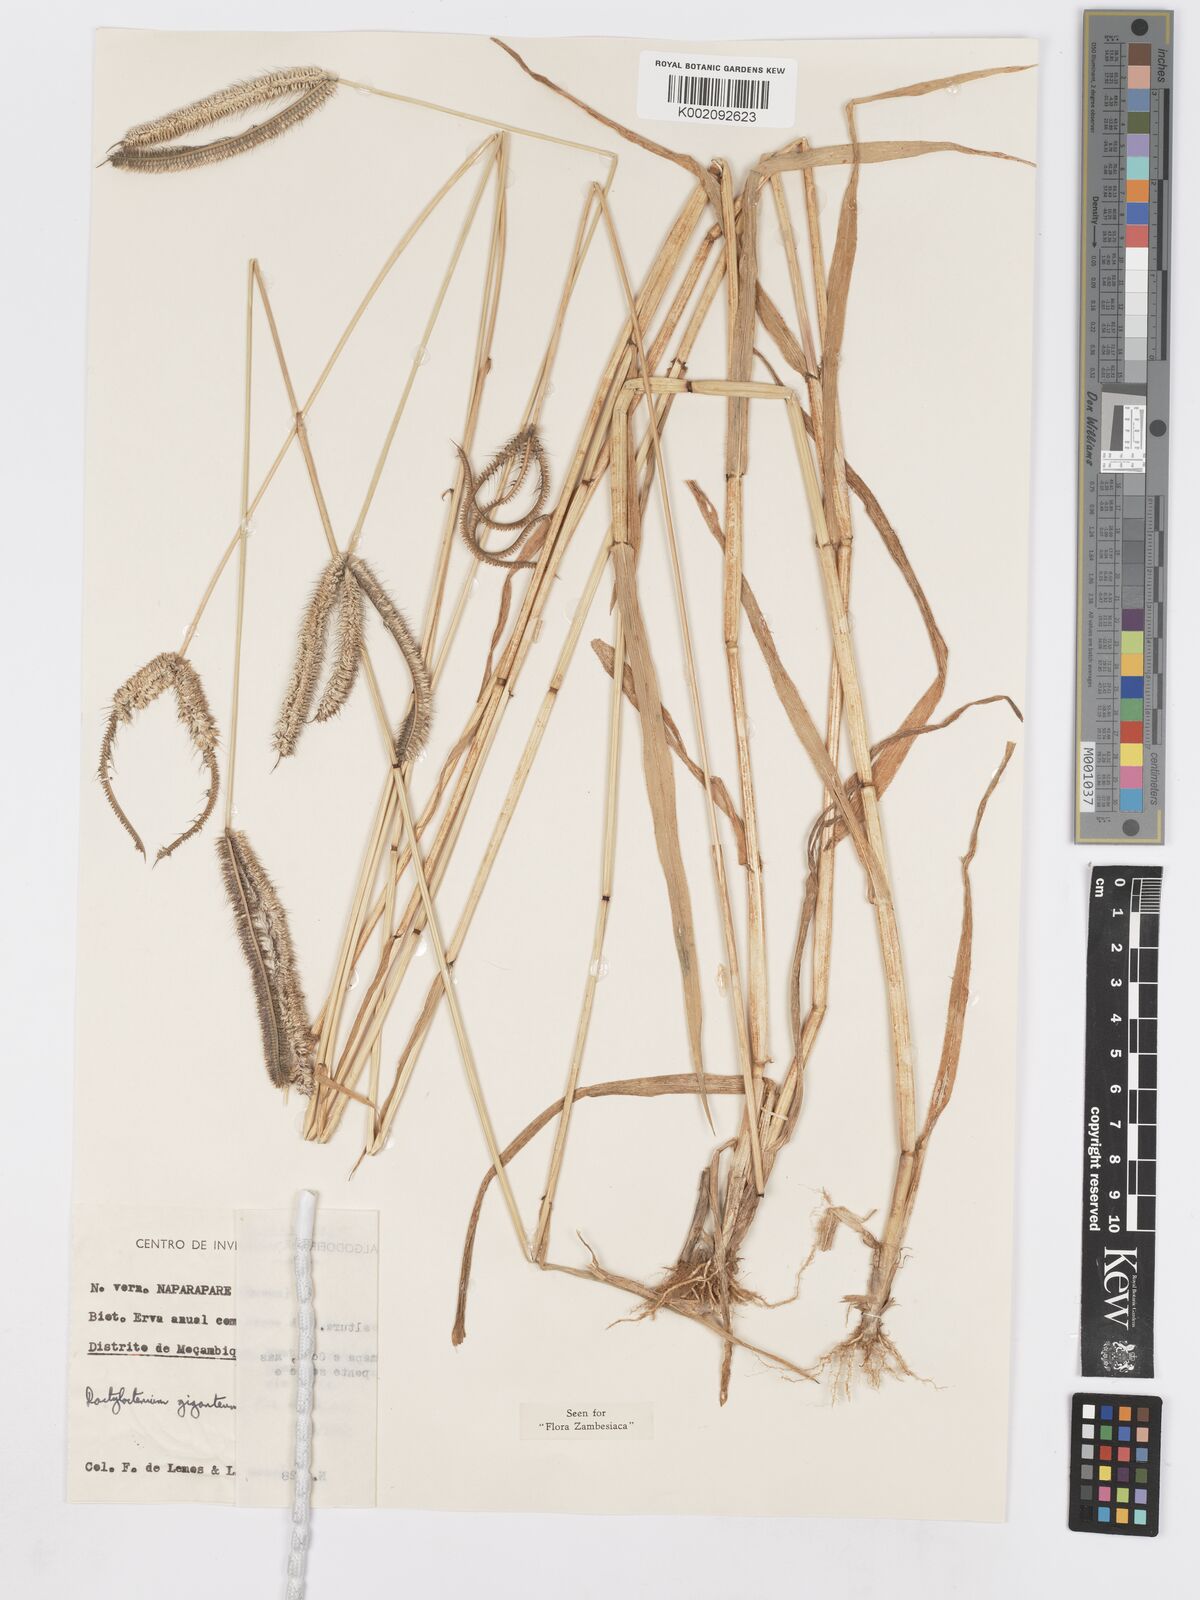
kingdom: Plantae
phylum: Tracheophyta
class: Liliopsida
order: Poales
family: Poaceae
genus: Dactyloctenium
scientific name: Dactyloctenium giganteum
